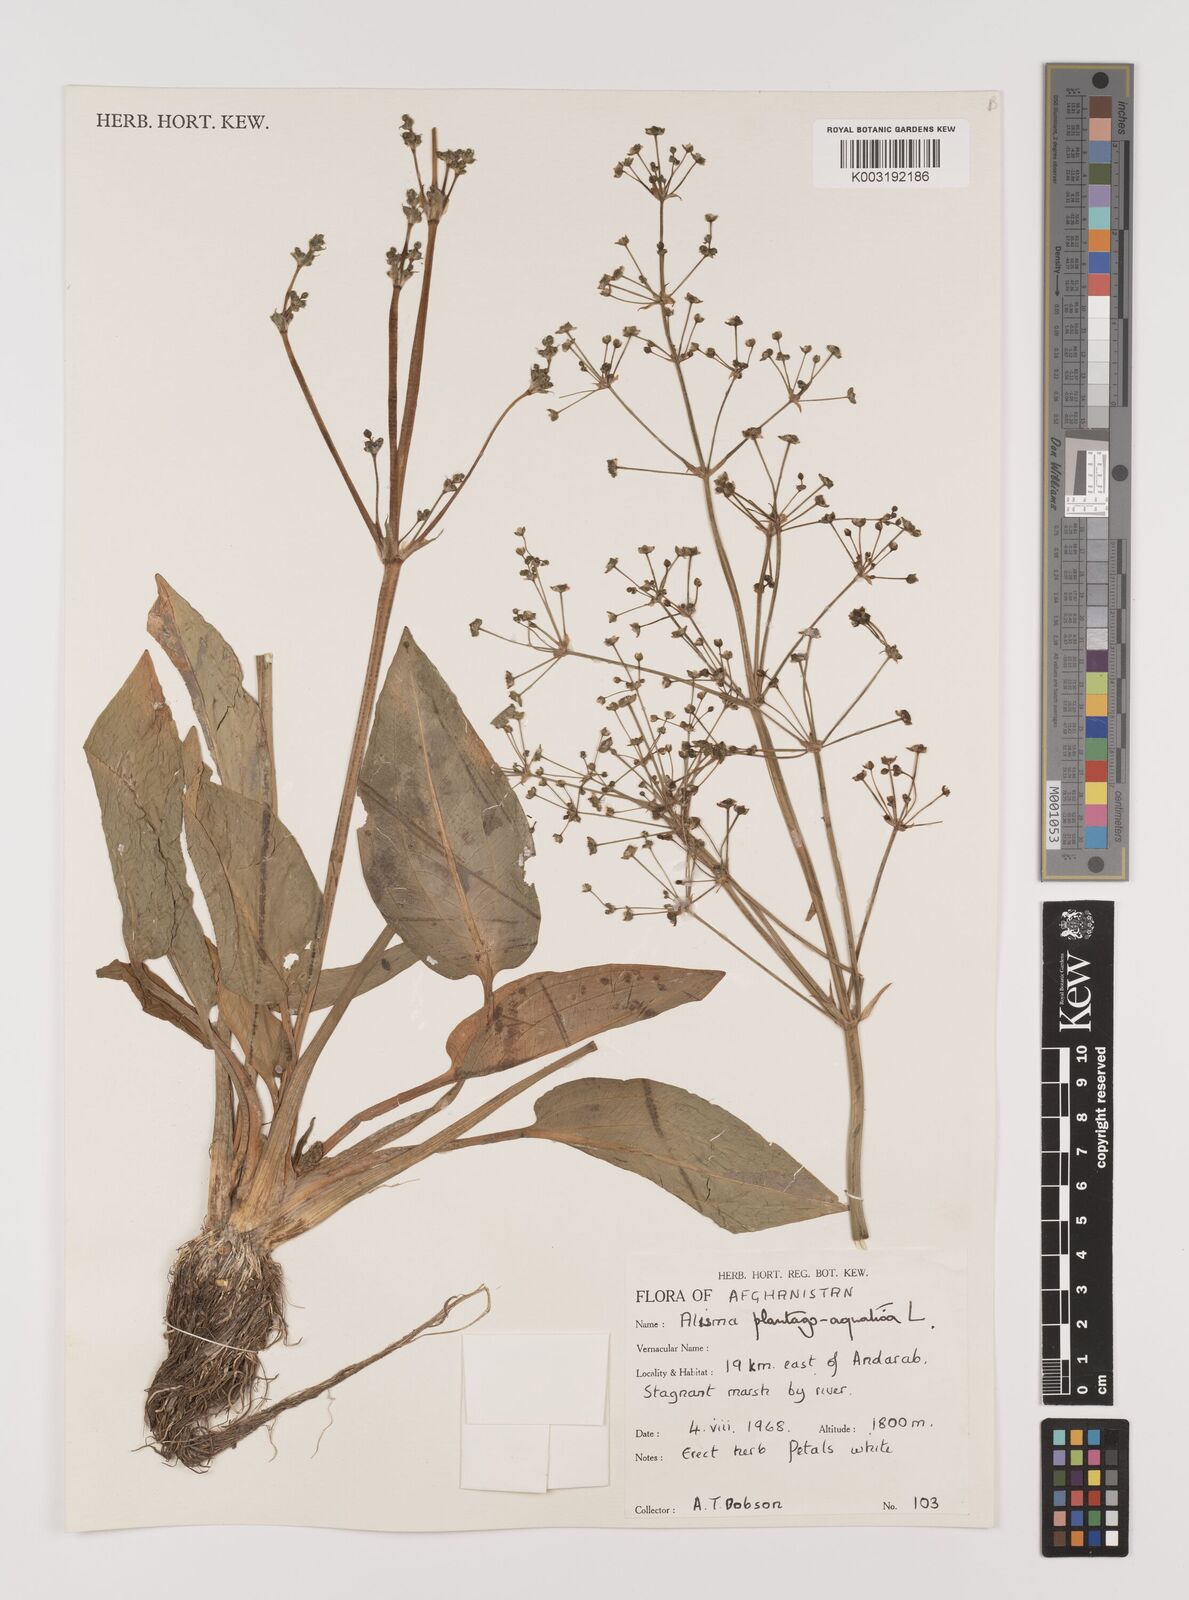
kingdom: Plantae
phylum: Tracheophyta
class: Liliopsida
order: Alismatales
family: Alismataceae
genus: Alisma
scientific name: Alisma plantago-aquatica
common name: Water-plantain
